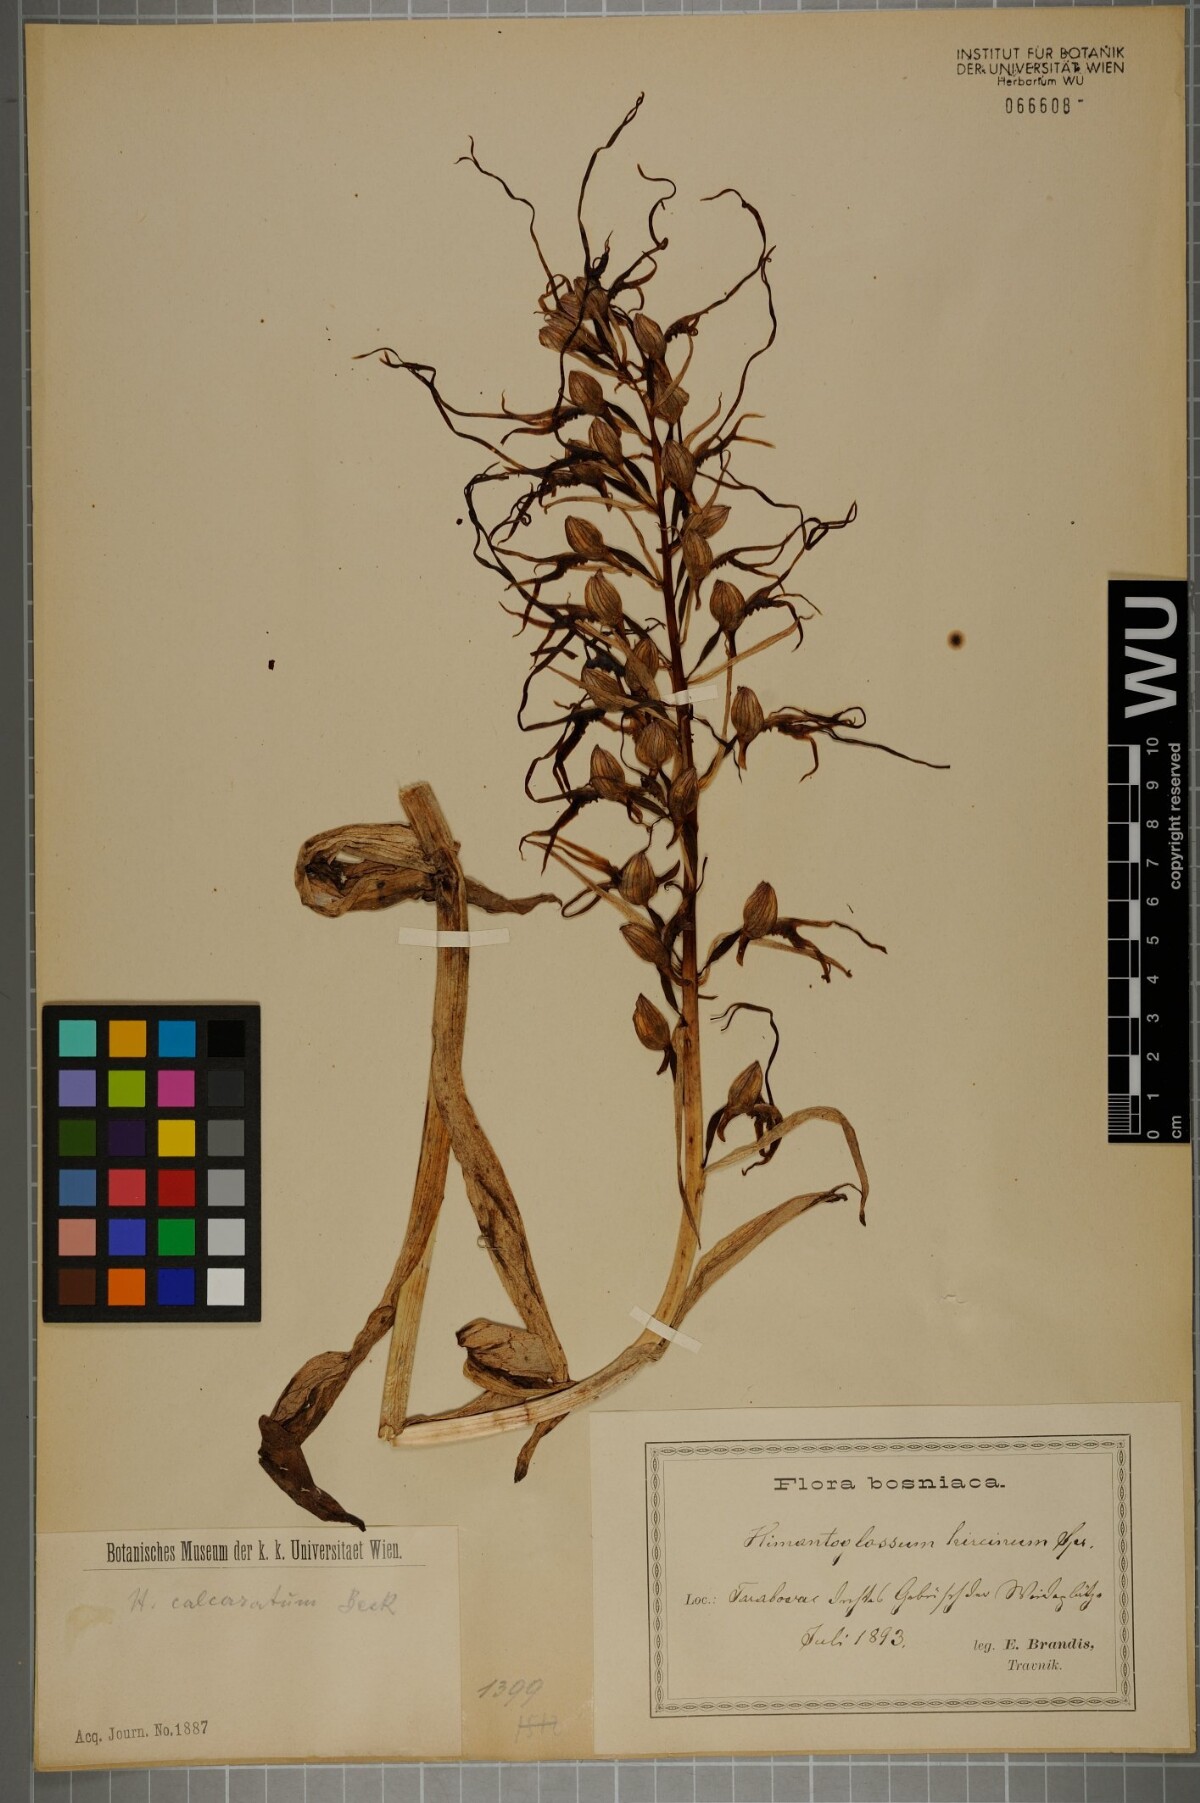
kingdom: Plantae
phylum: Tracheophyta
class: Liliopsida
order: Asparagales
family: Orchidaceae
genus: Himantoglossum
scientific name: Himantoglossum calcaratum
